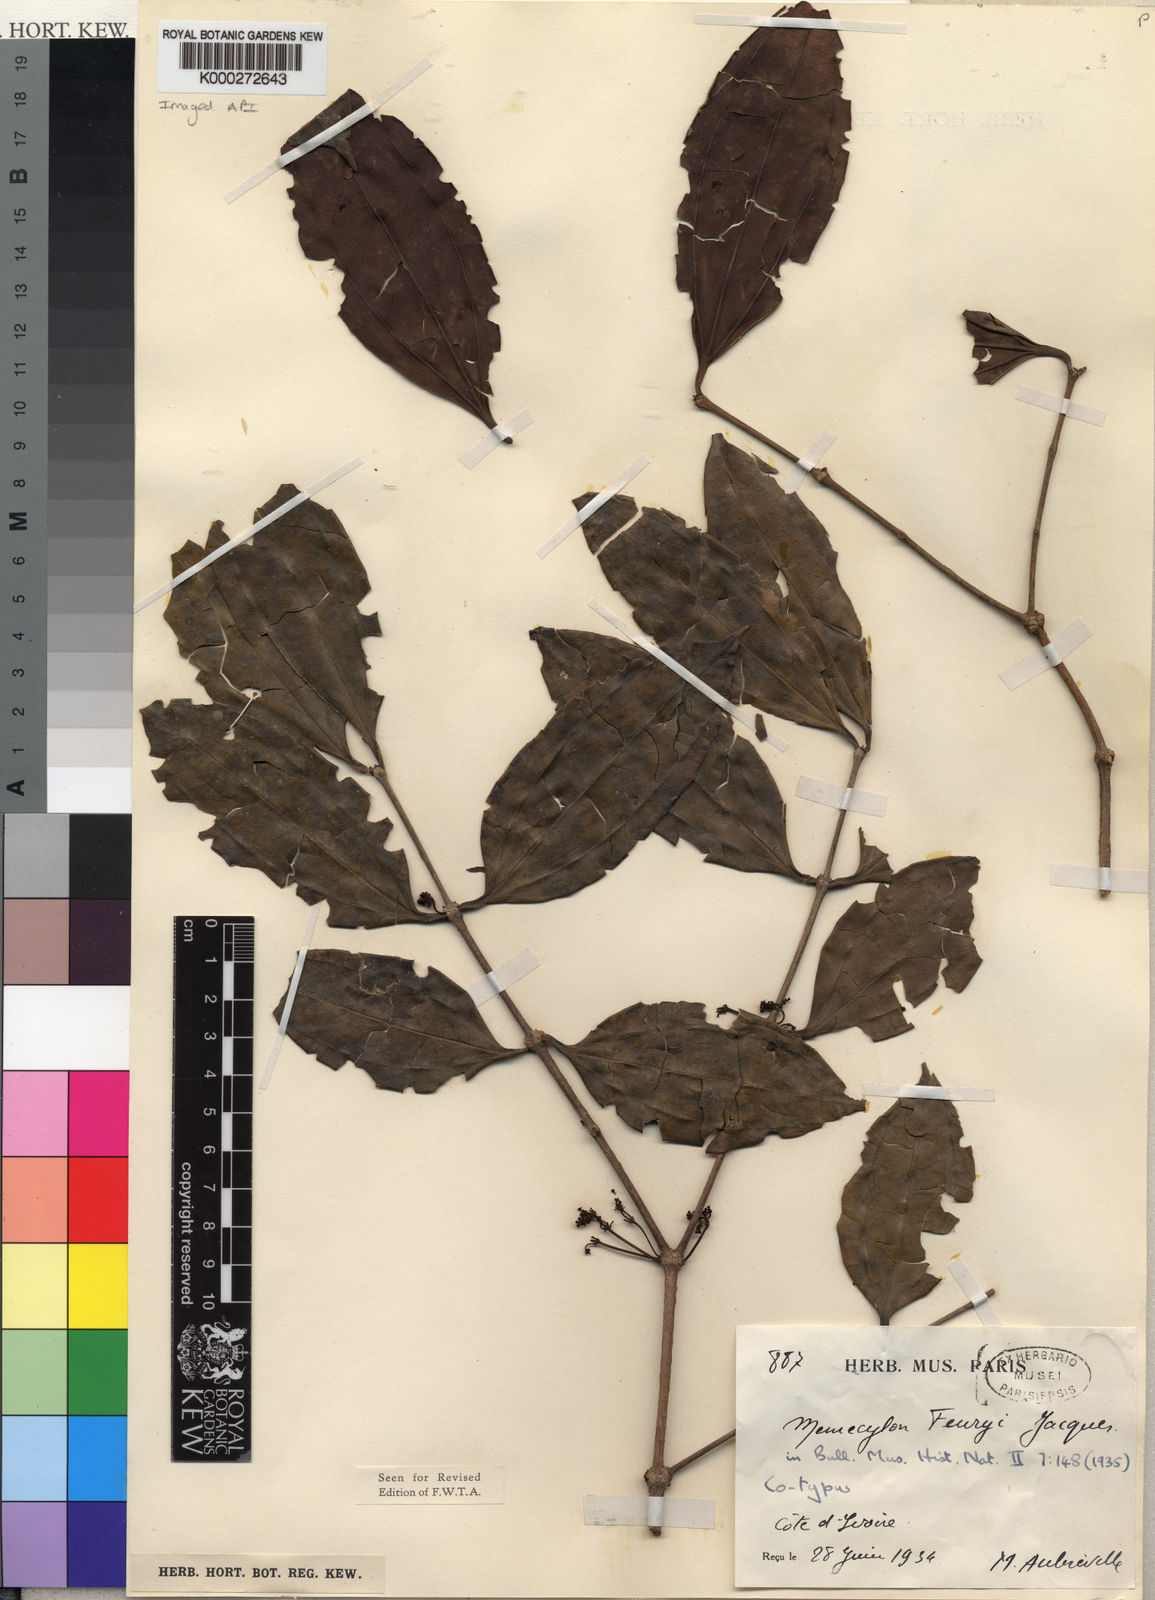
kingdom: Plantae
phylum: Tracheophyta
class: Magnoliopsida
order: Myrtales
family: Melastomataceae
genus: Spathandra
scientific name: Spathandra blakeoides
